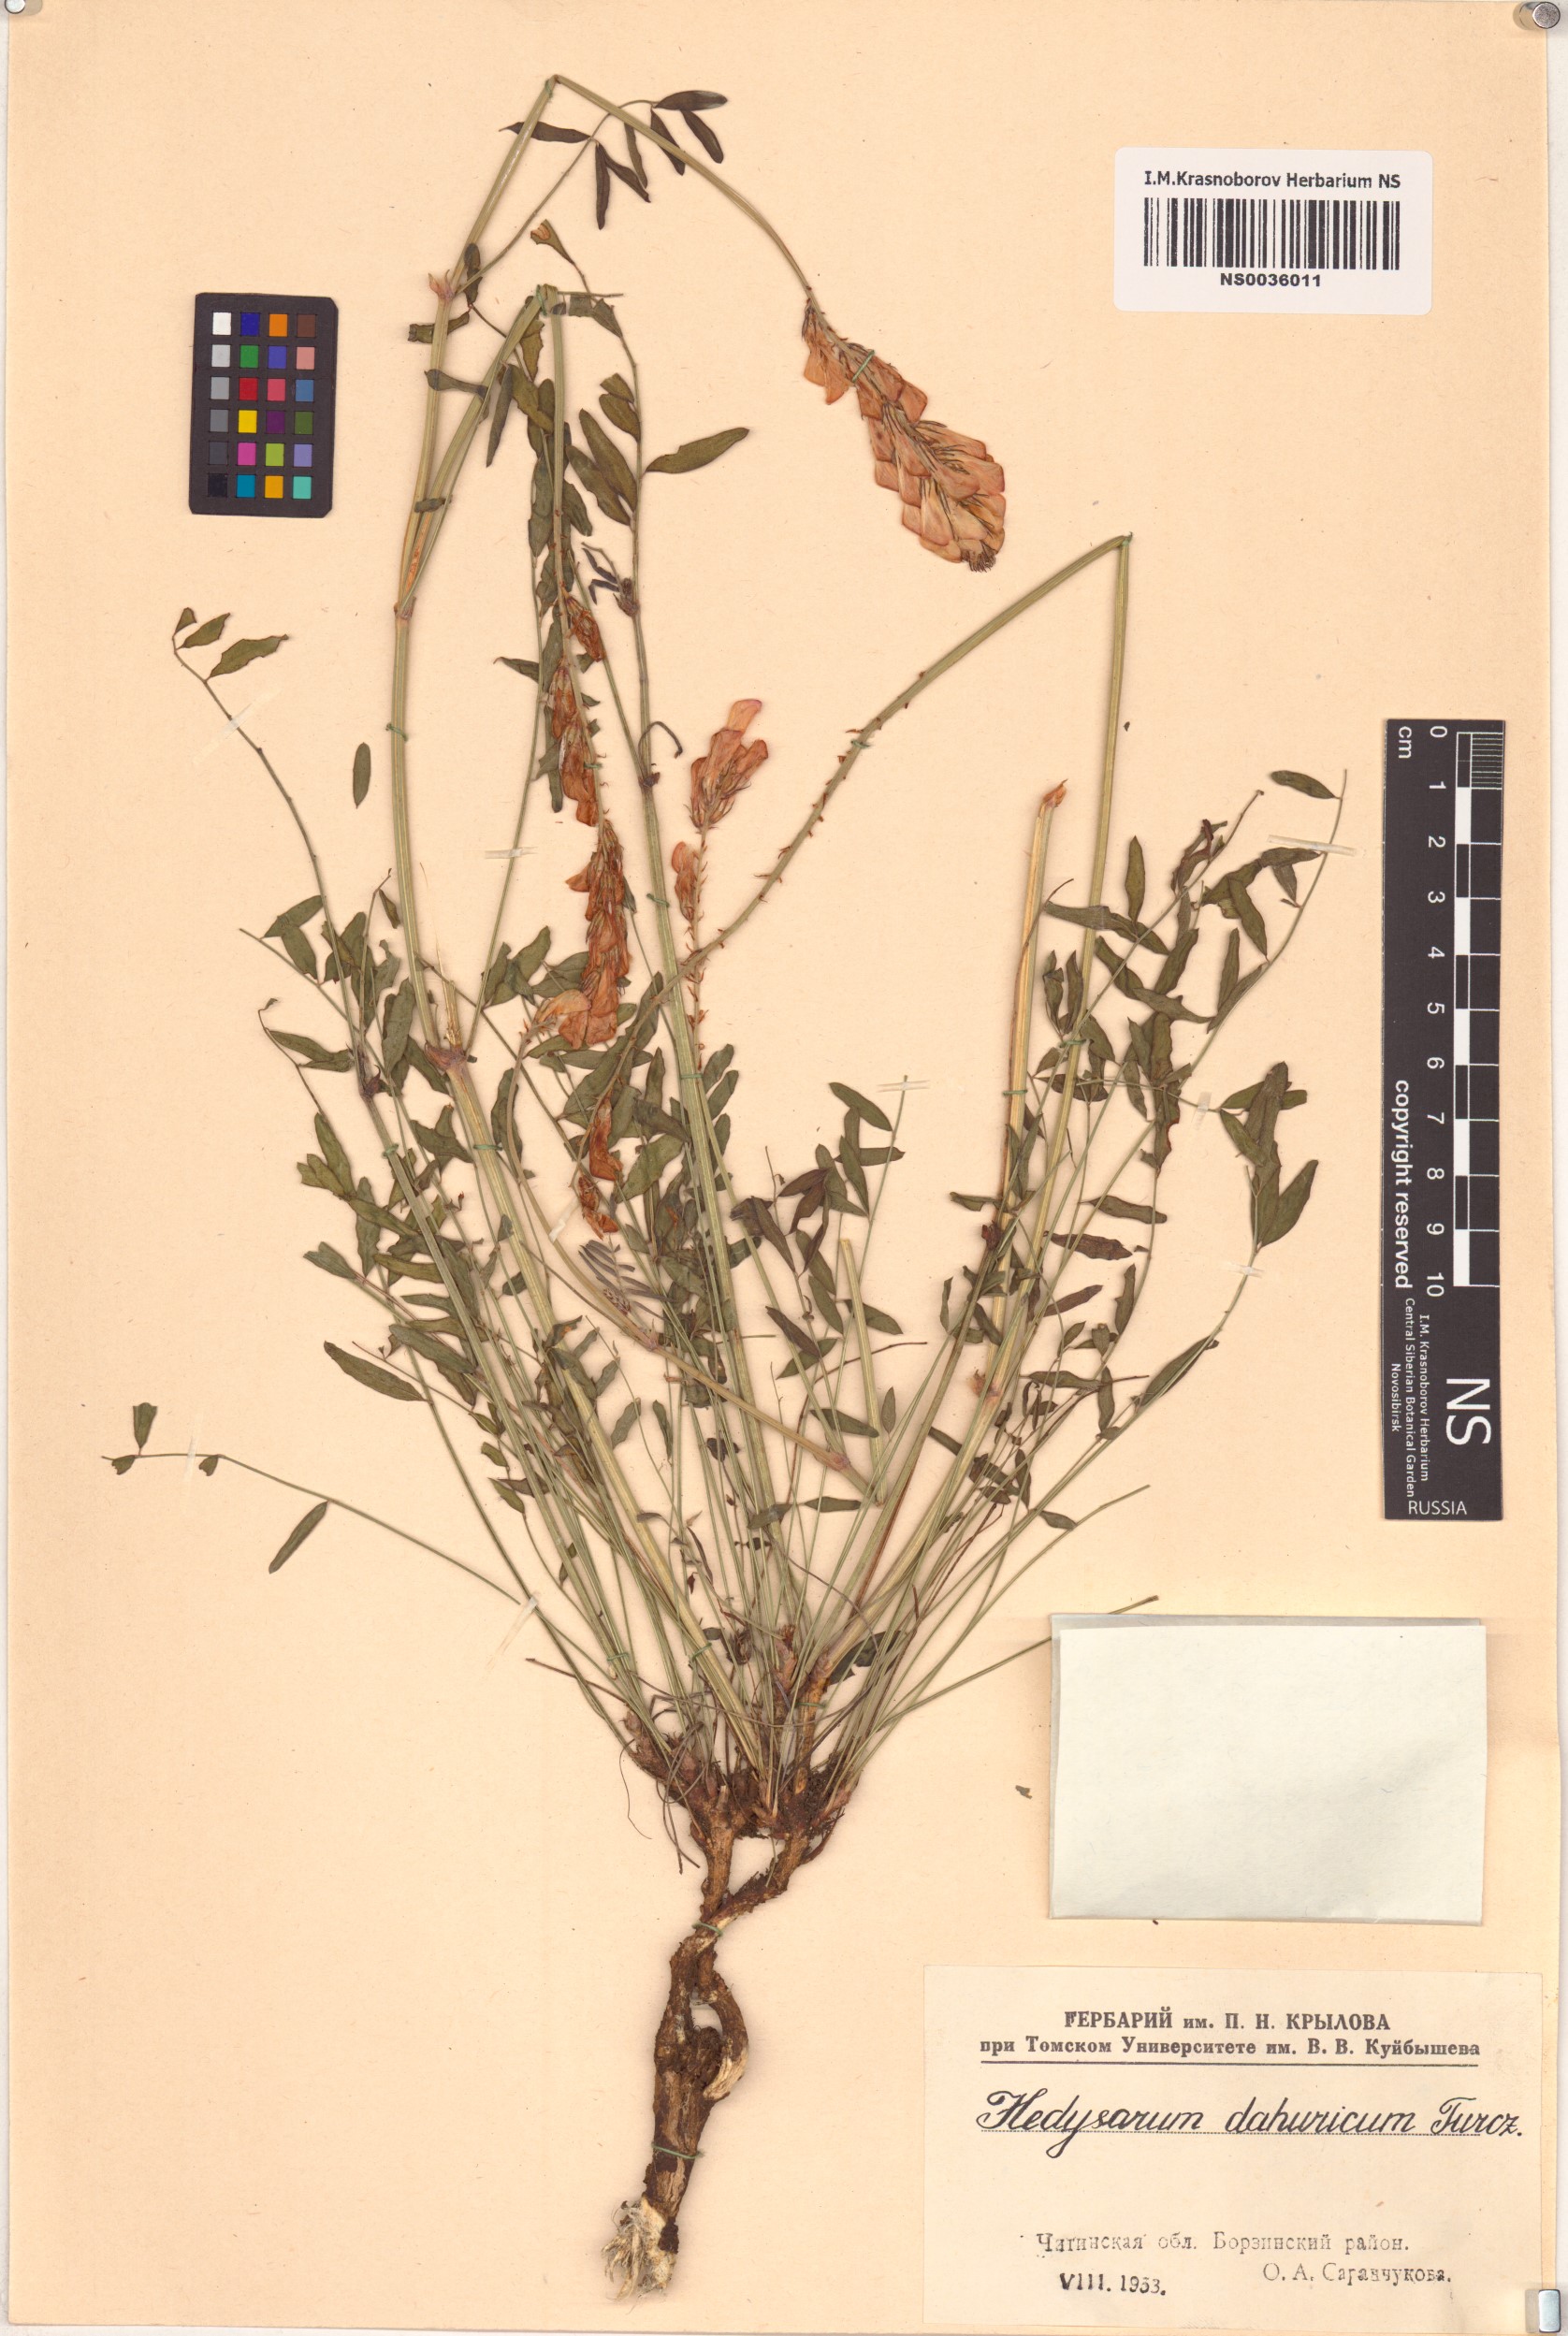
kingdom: Plantae
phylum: Tracheophyta
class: Magnoliopsida
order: Fabales
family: Fabaceae
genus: Hedysarum
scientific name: Hedysarum dahuricum
